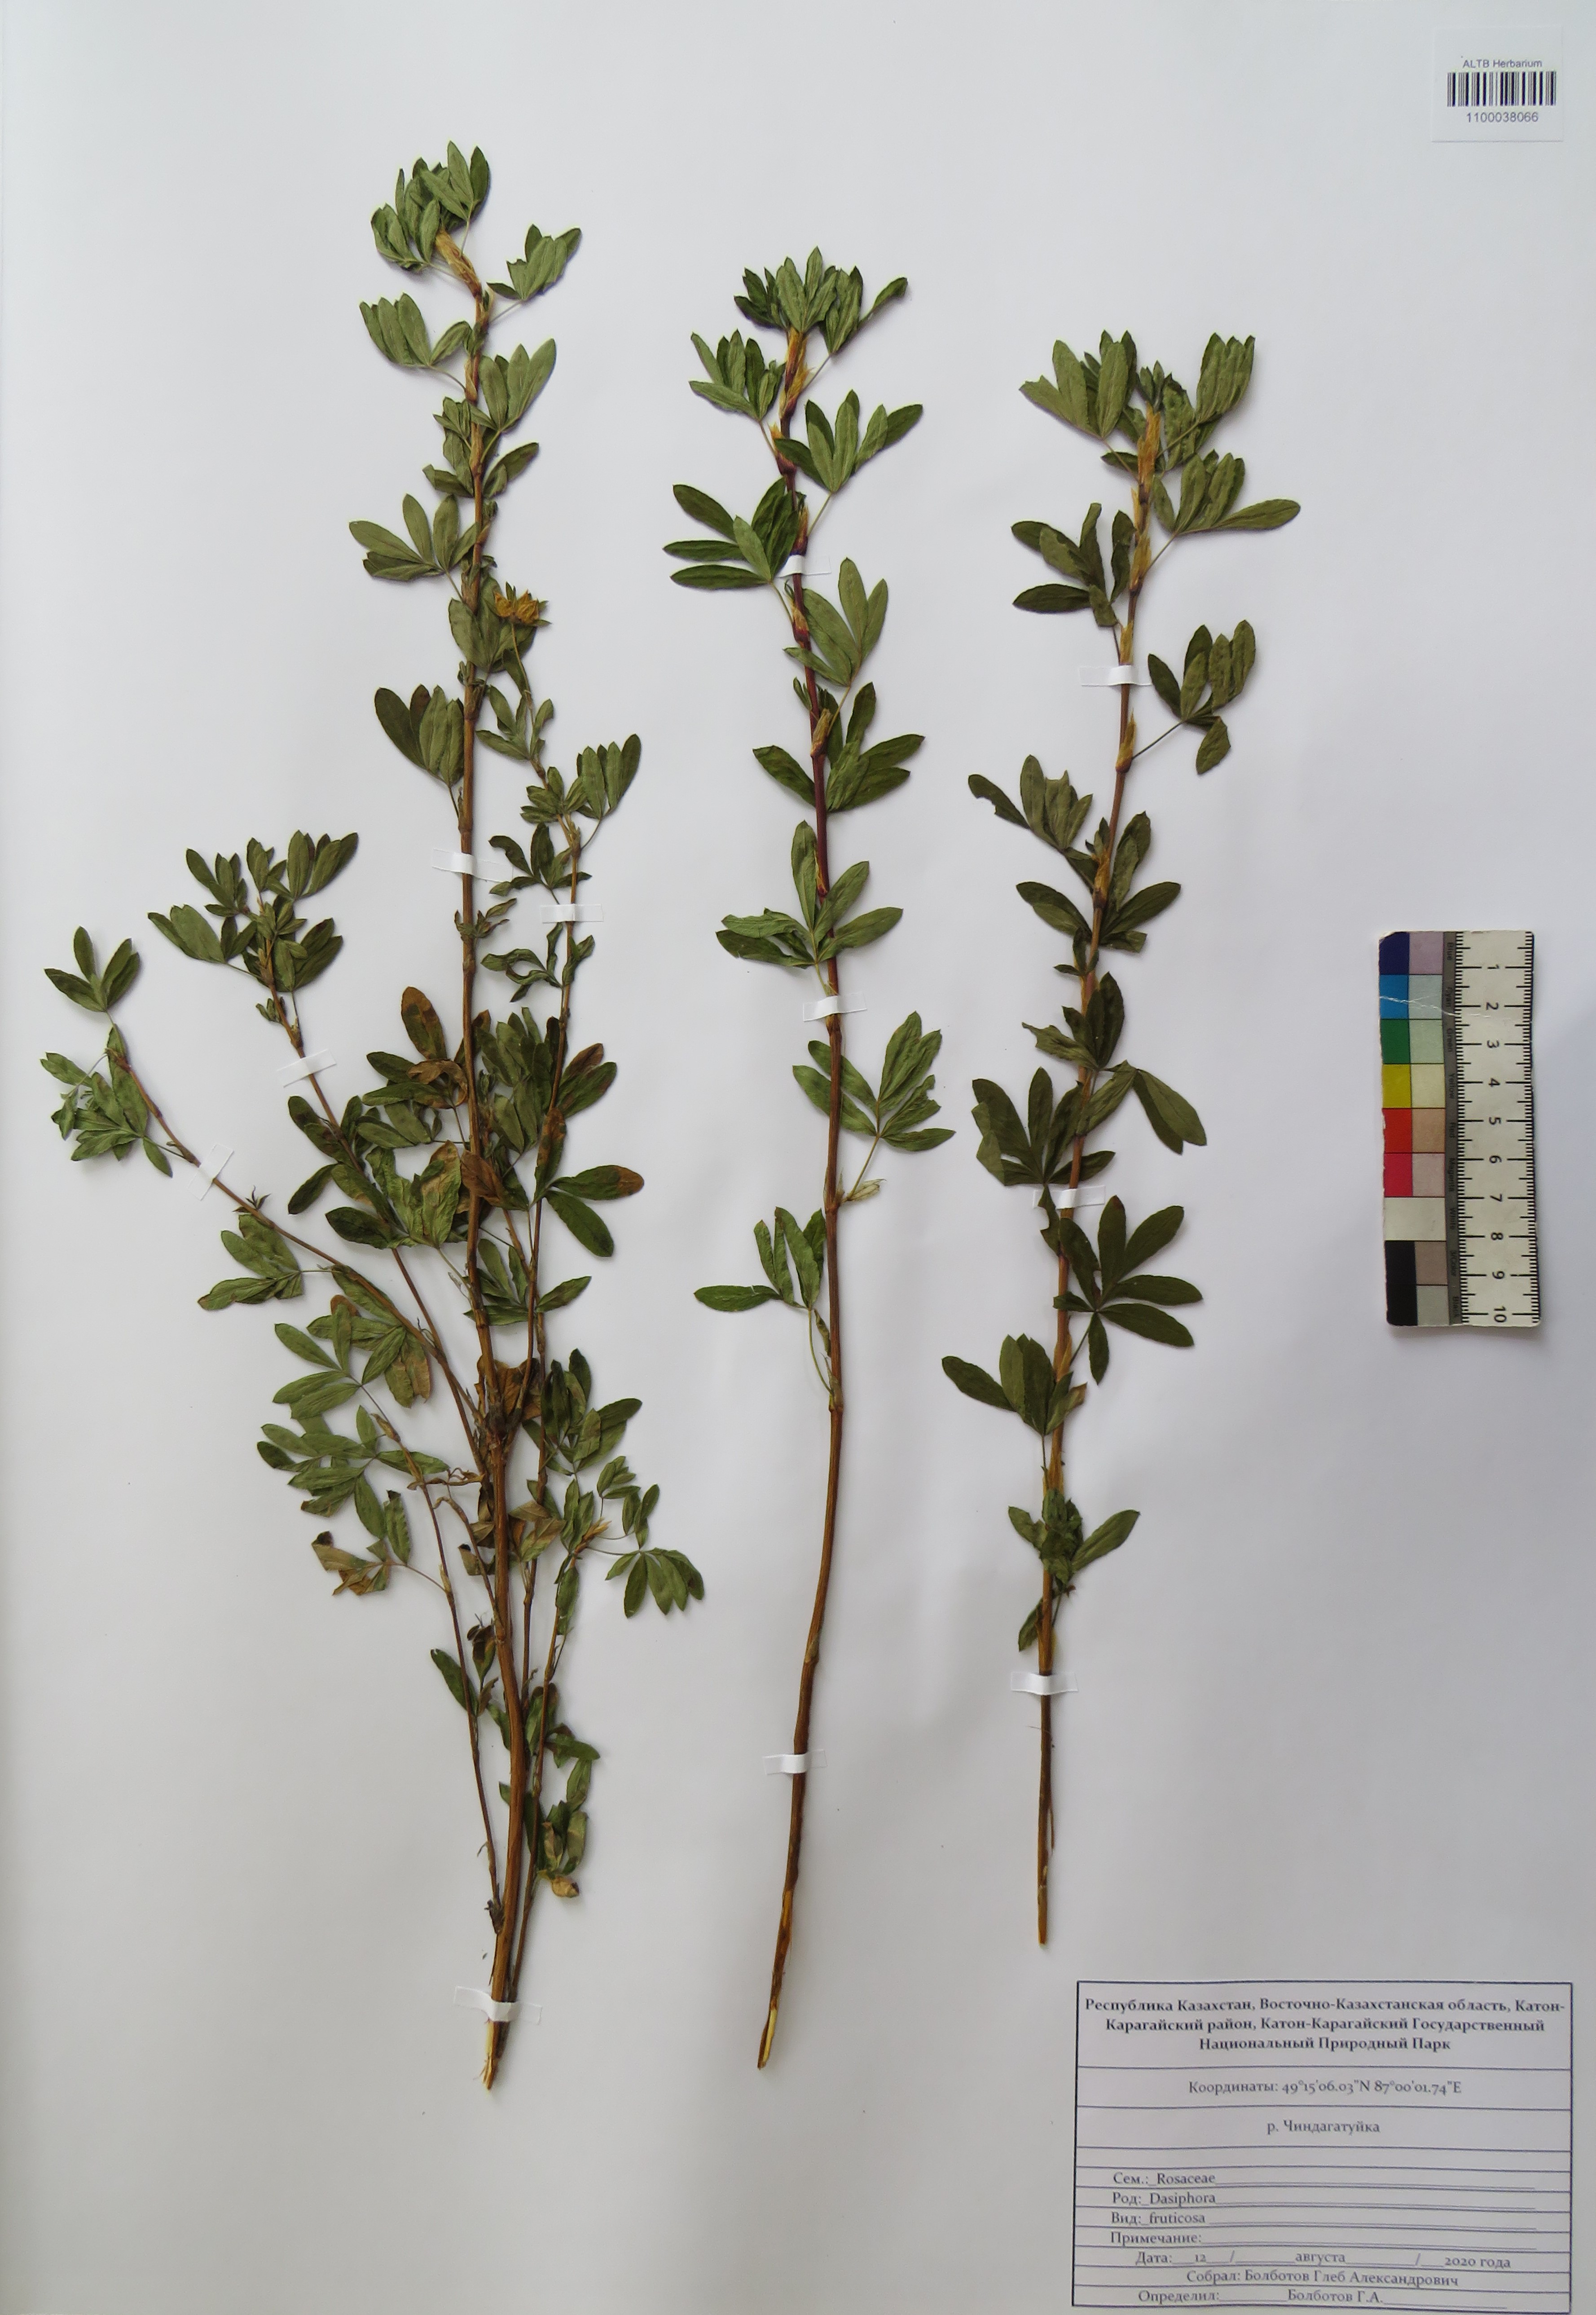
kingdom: Plantae
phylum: Tracheophyta
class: Magnoliopsida
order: Rosales
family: Rosaceae
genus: Dasiphora
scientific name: Dasiphora fruticosa
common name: Shrubby cinquefoil
